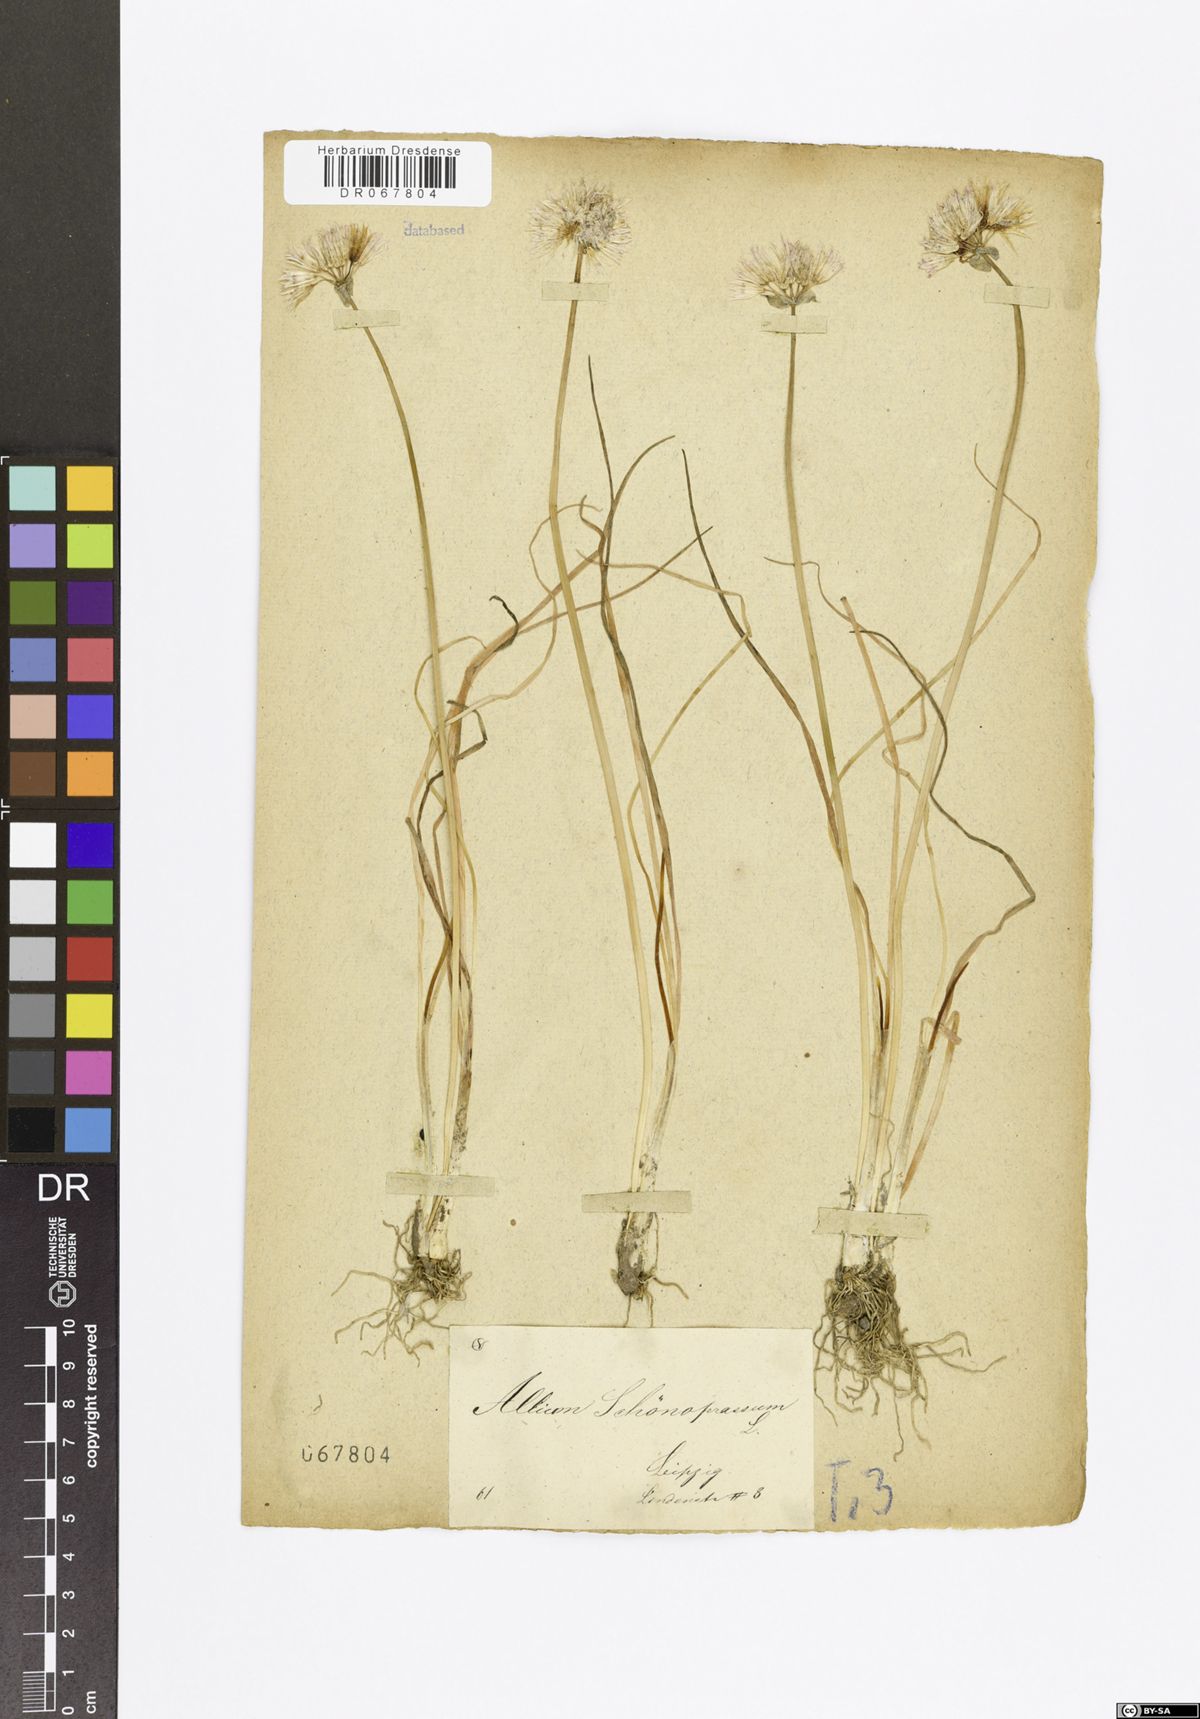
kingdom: Plantae
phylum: Tracheophyta
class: Liliopsida
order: Asparagales
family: Amaryllidaceae
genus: Allium
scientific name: Allium schoenoprasum
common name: Chives
